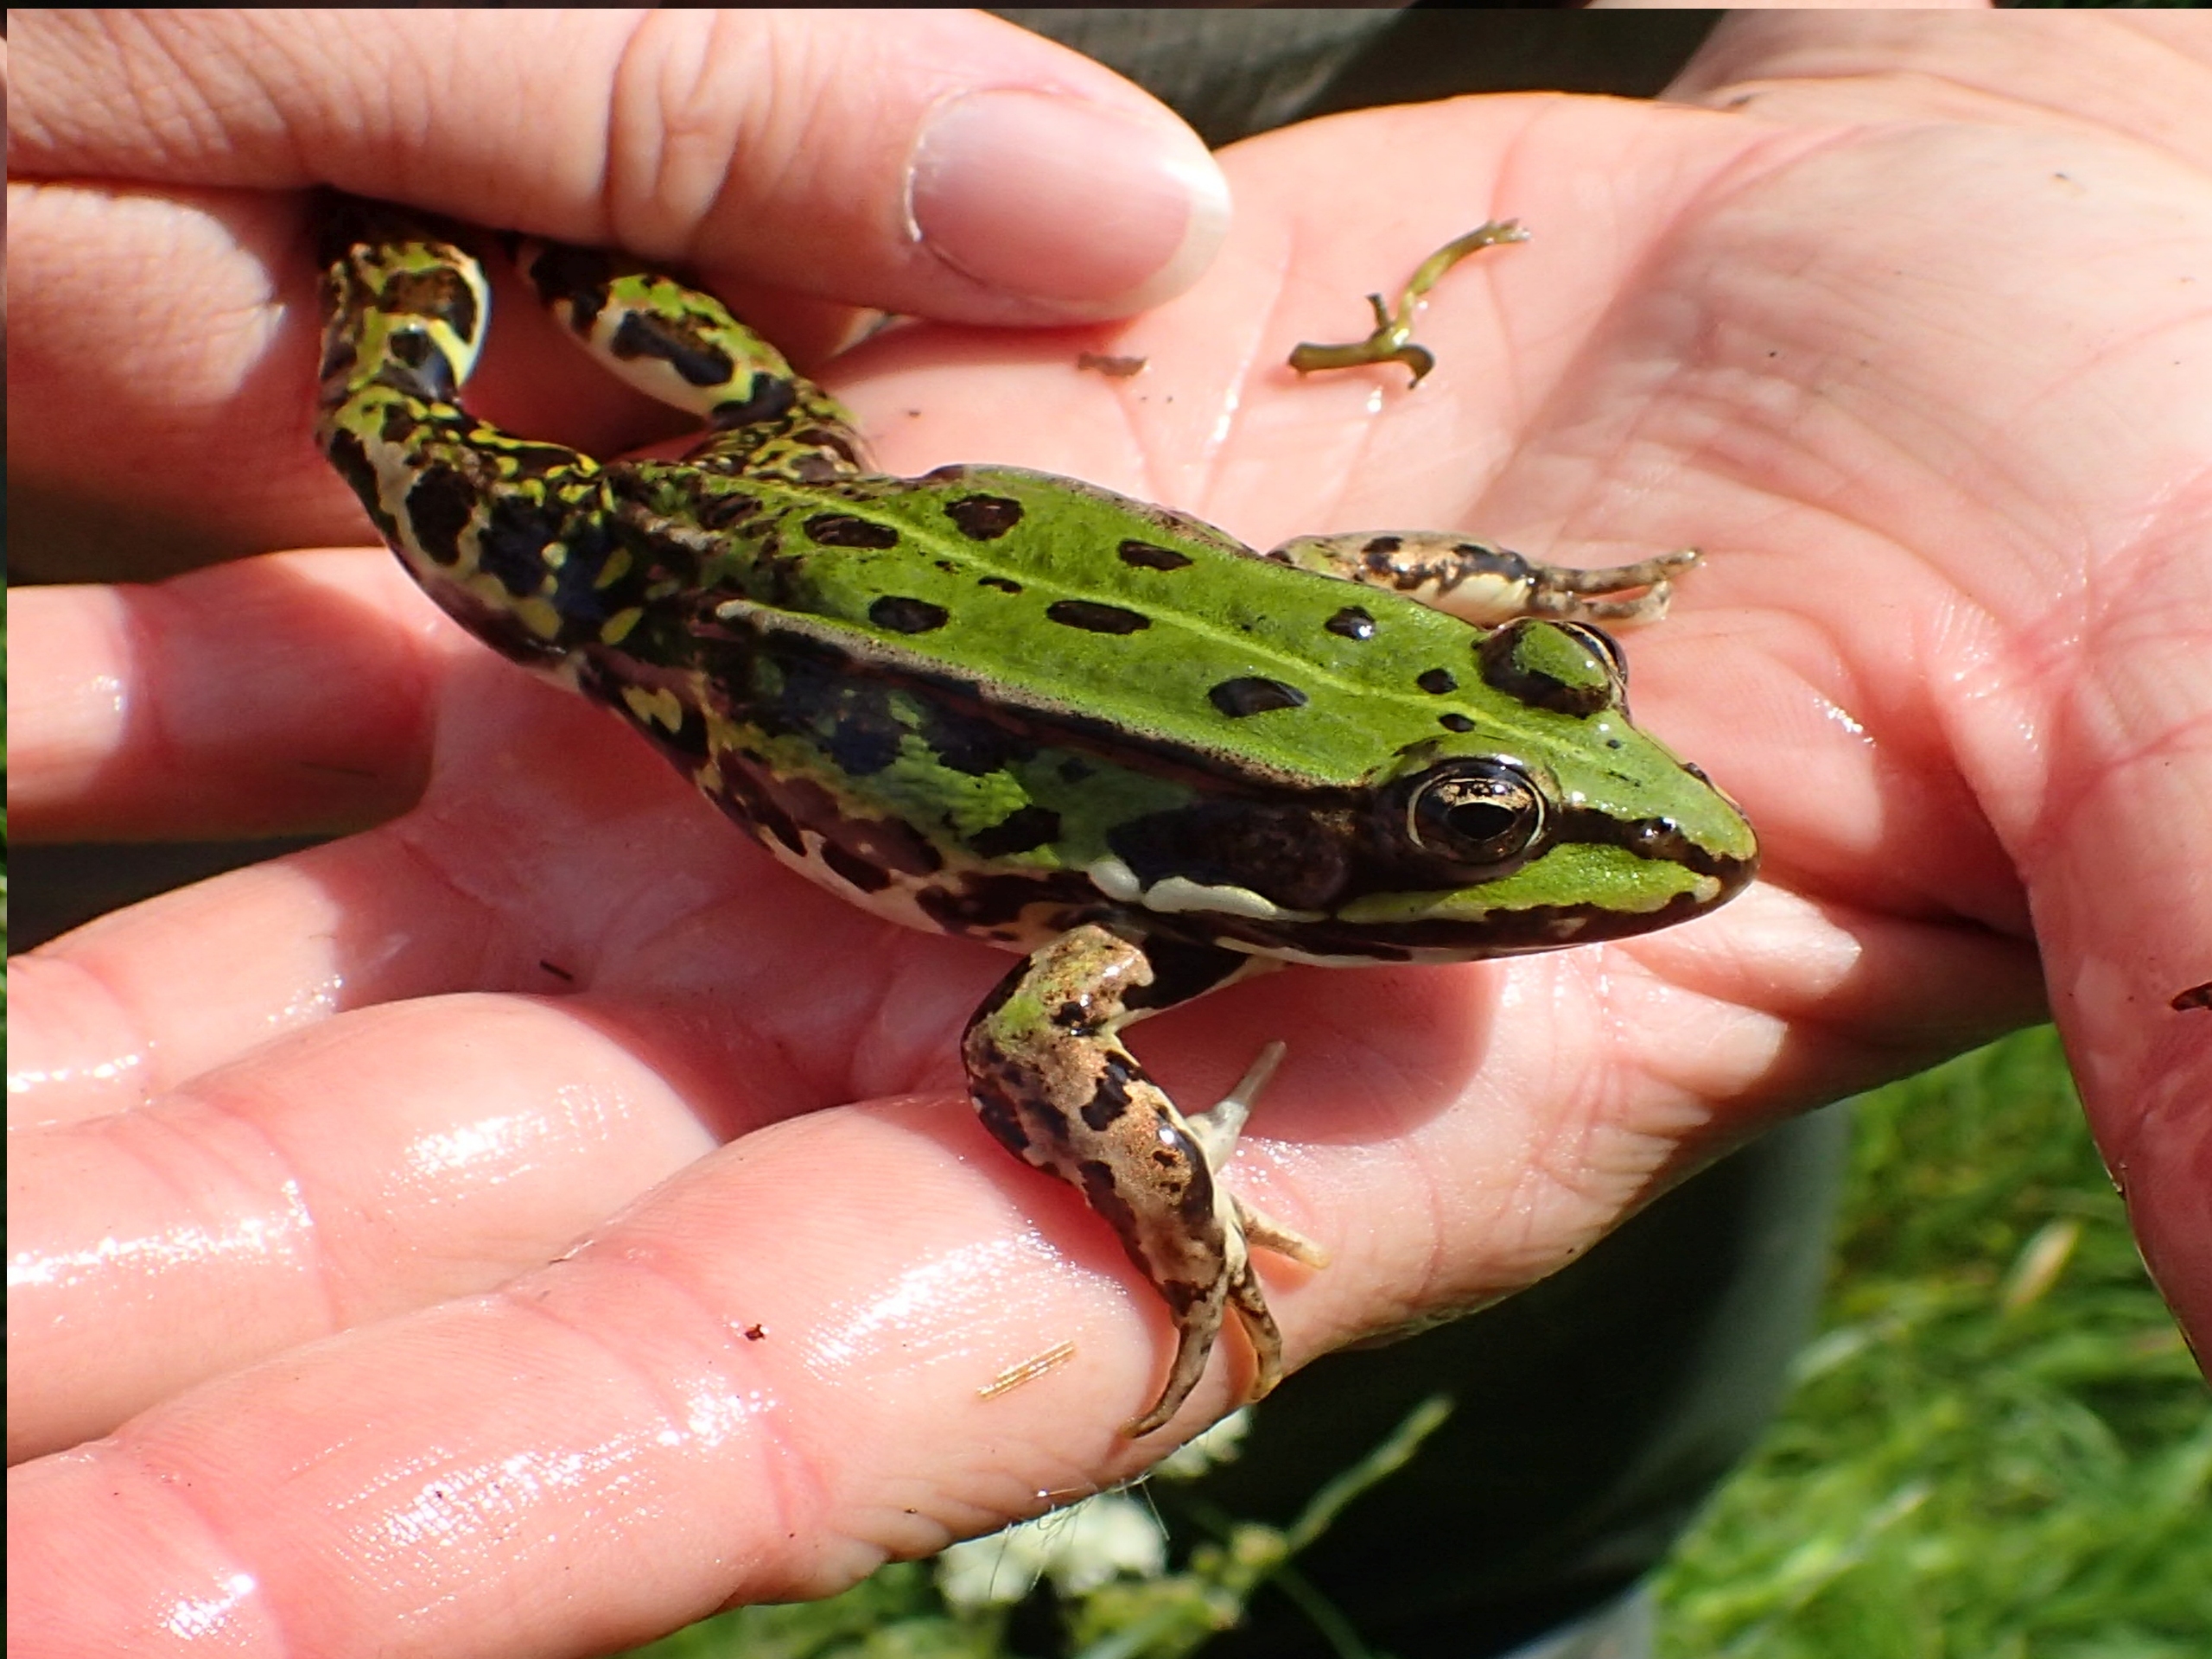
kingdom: Animalia
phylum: Chordata
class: Amphibia
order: Anura
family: Ranidae
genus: Pelophylax
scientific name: Pelophylax lessonae
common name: Grøn frø
